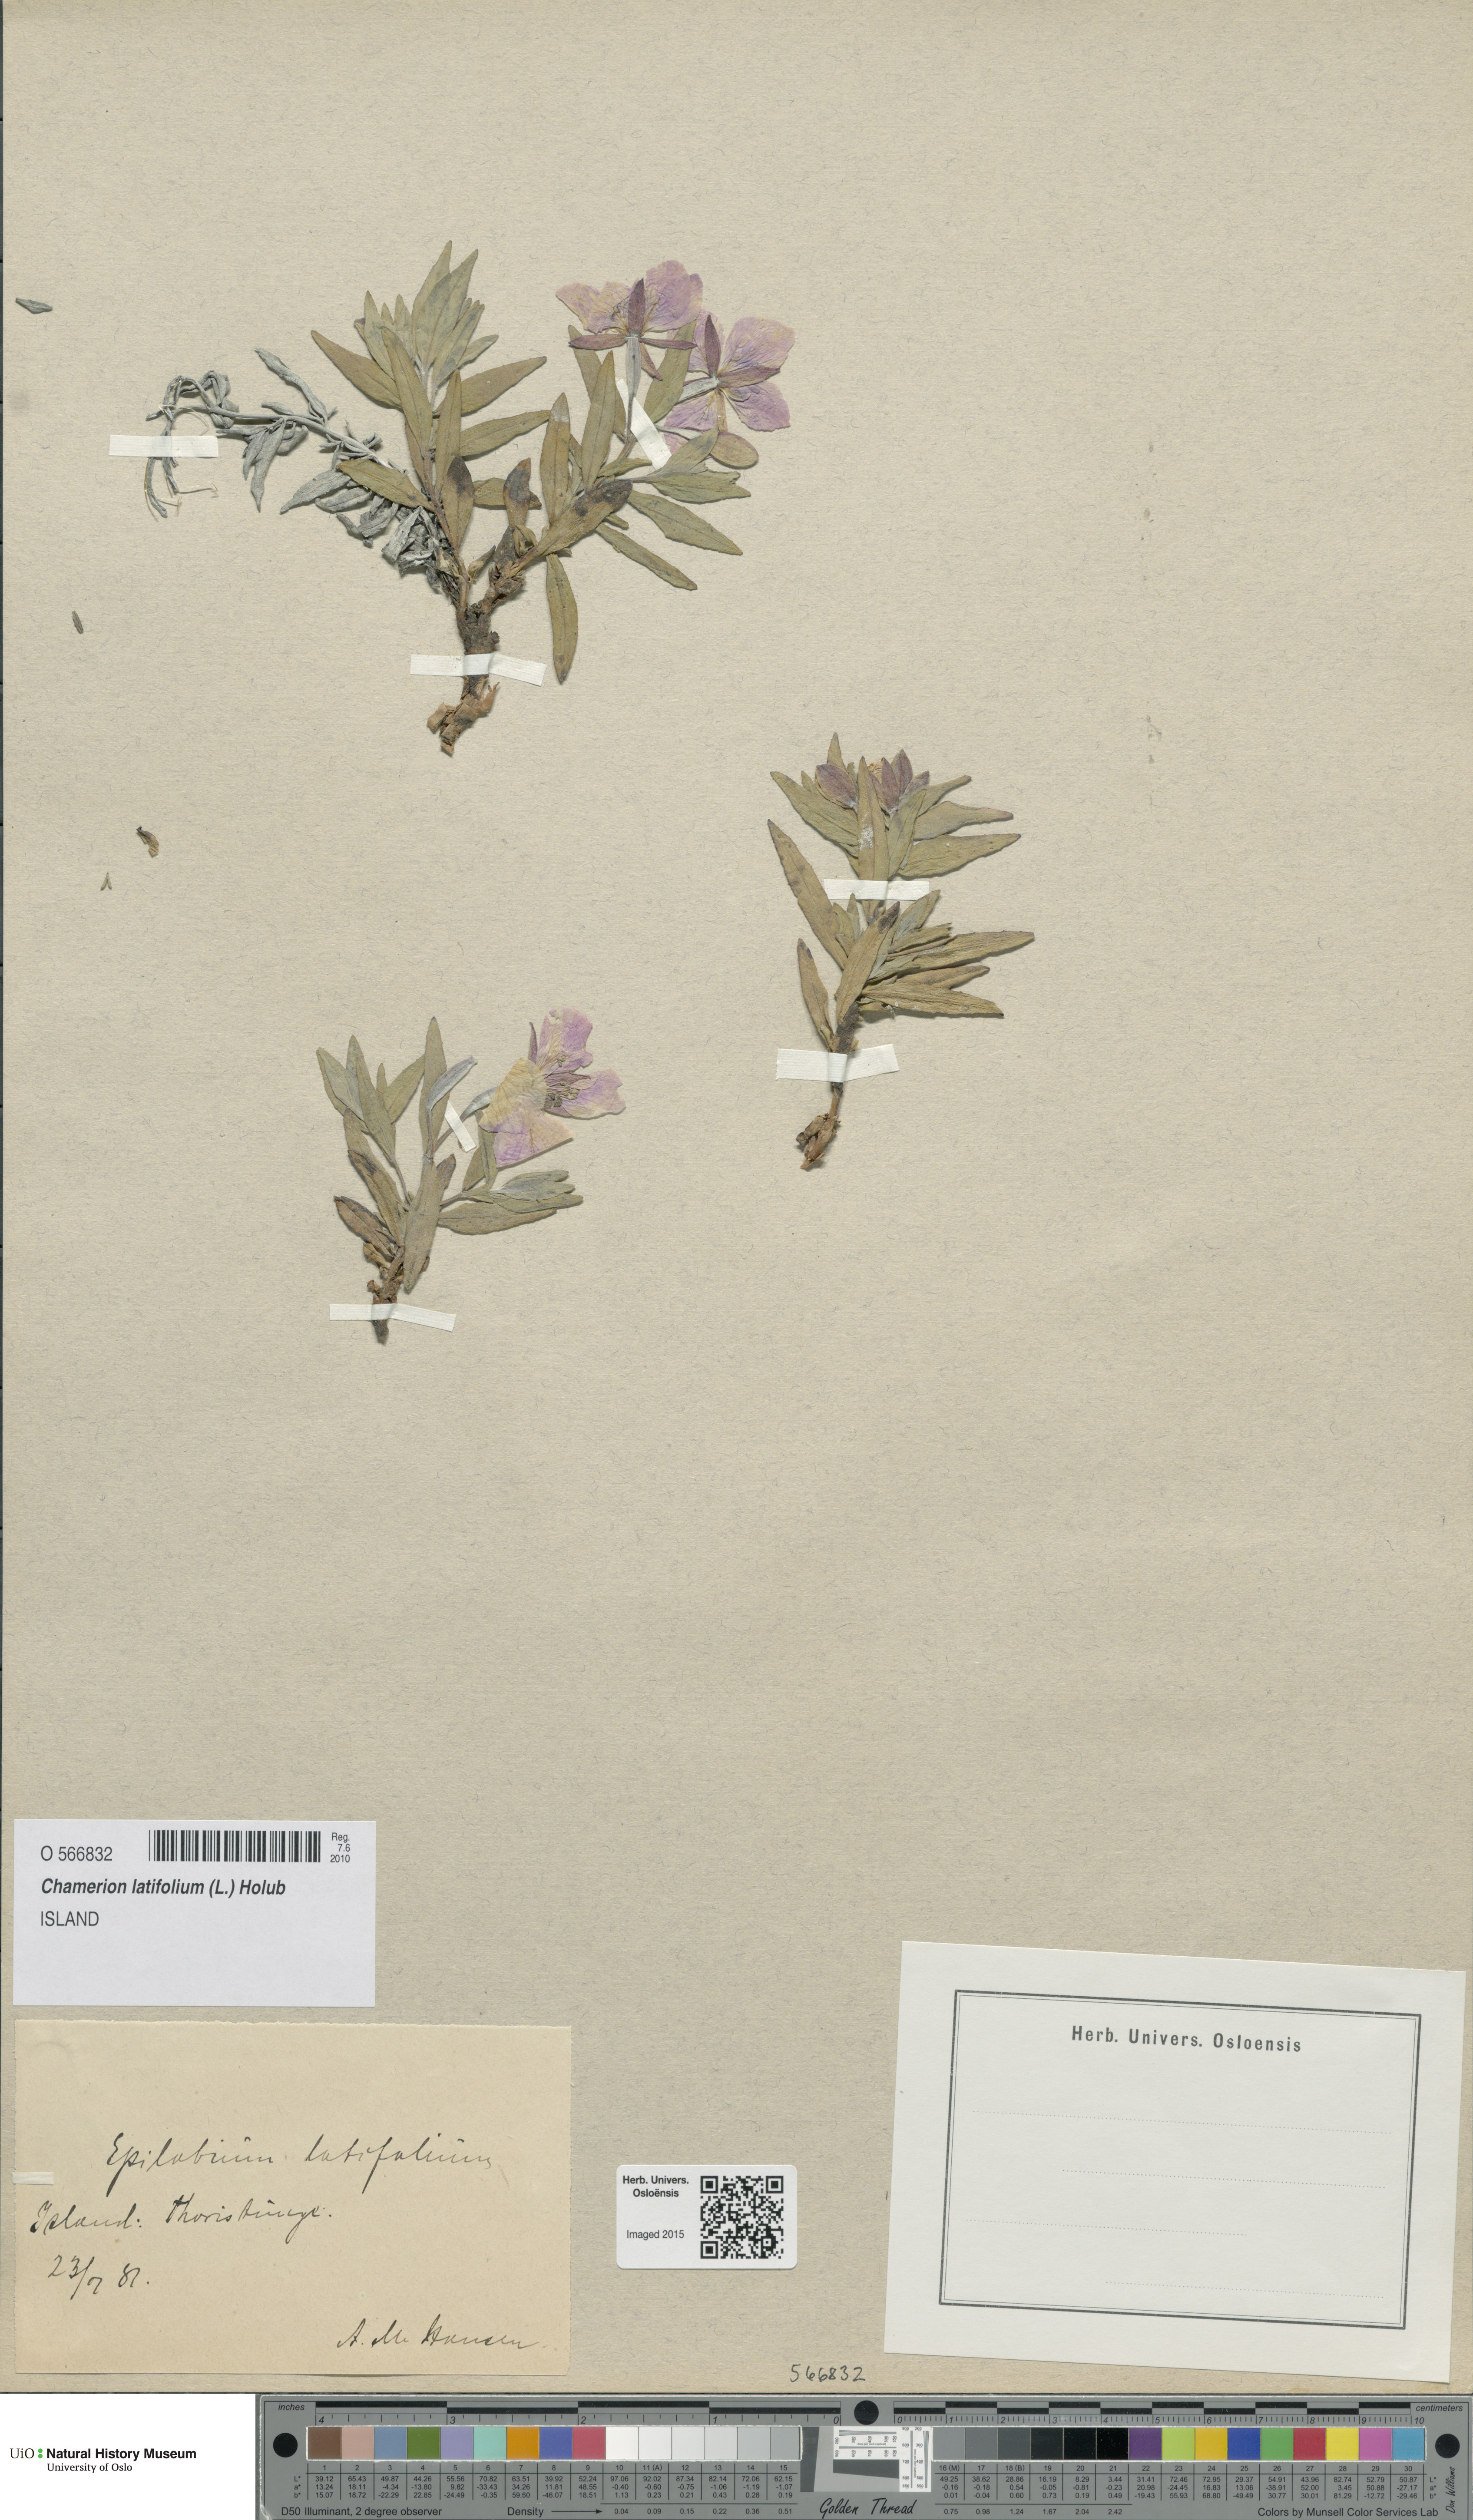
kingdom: Plantae
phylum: Tracheophyta
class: Magnoliopsida
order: Myrtales
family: Onagraceae
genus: Chamaenerion
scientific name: Chamaenerion latifolium
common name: Dwarf fireweed
